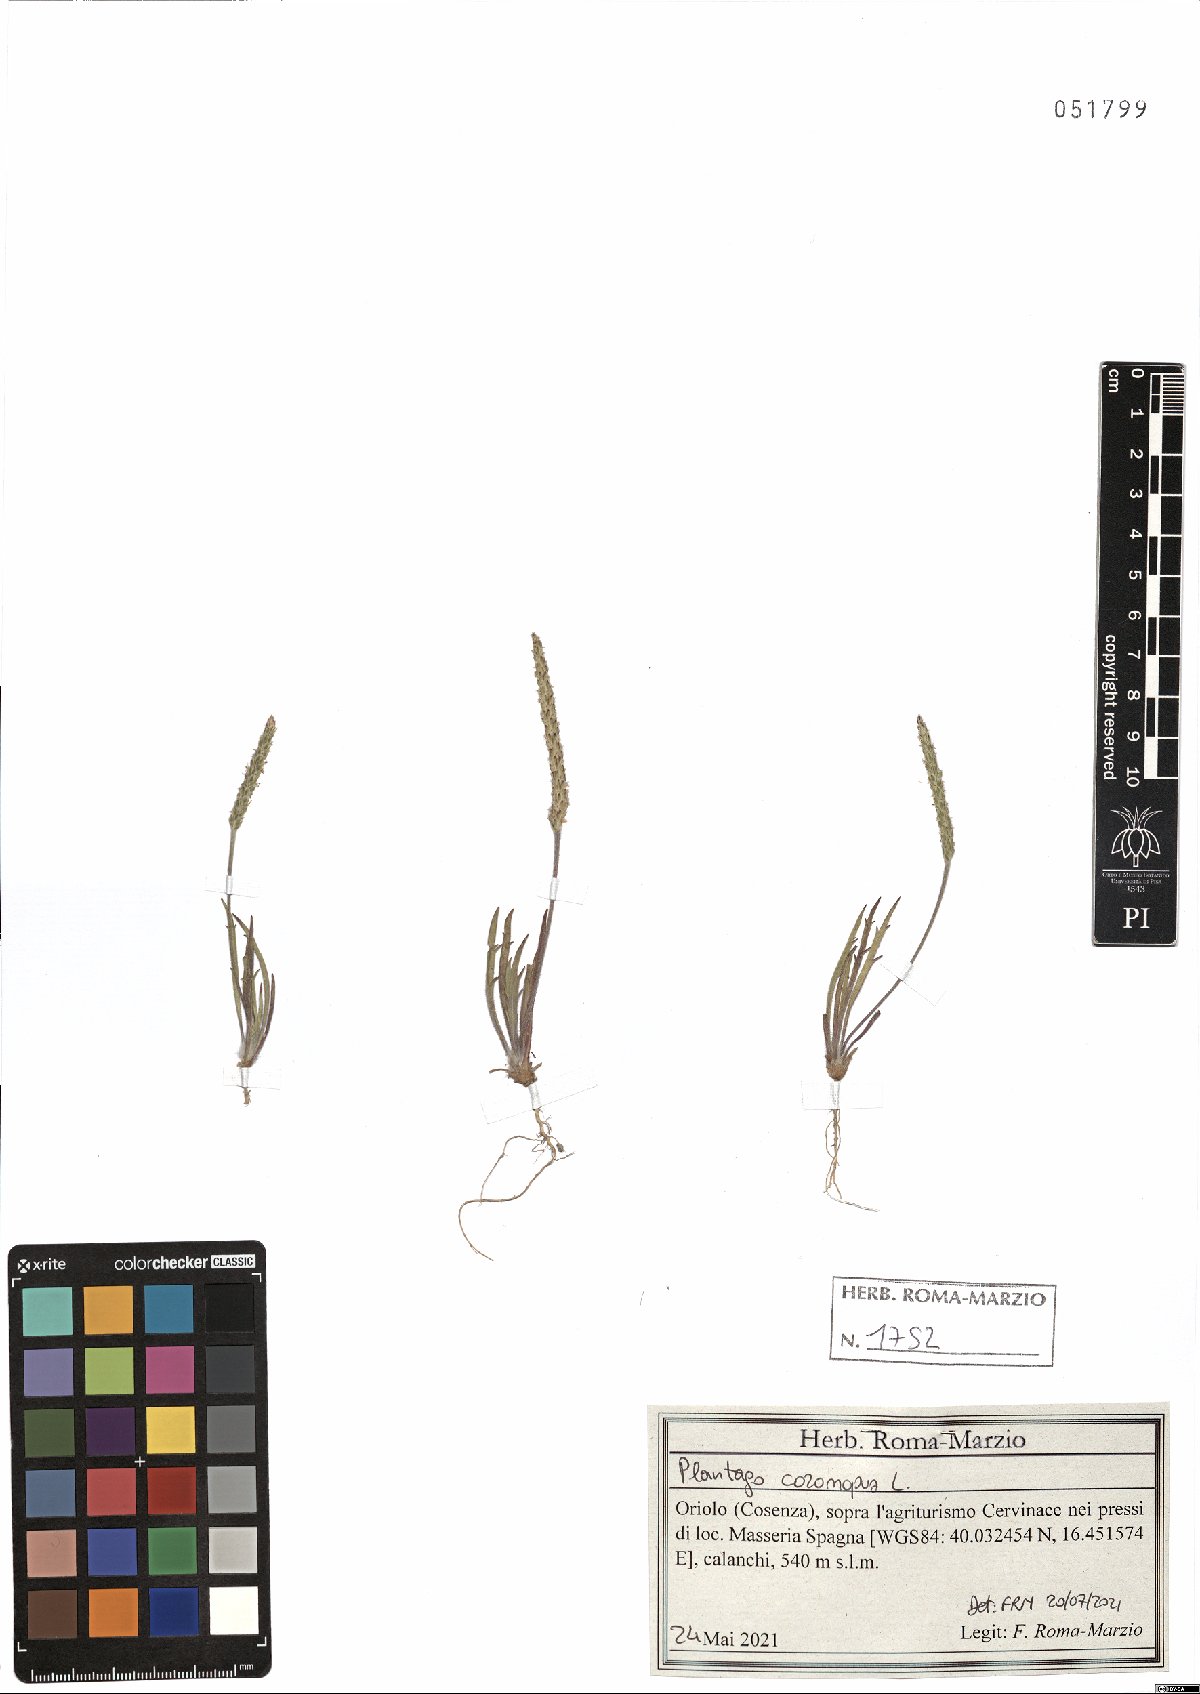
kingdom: Plantae
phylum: Tracheophyta
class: Magnoliopsida
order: Lamiales
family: Plantaginaceae
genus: Plantago
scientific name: Plantago coronopus
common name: Buck's-horn plantain
